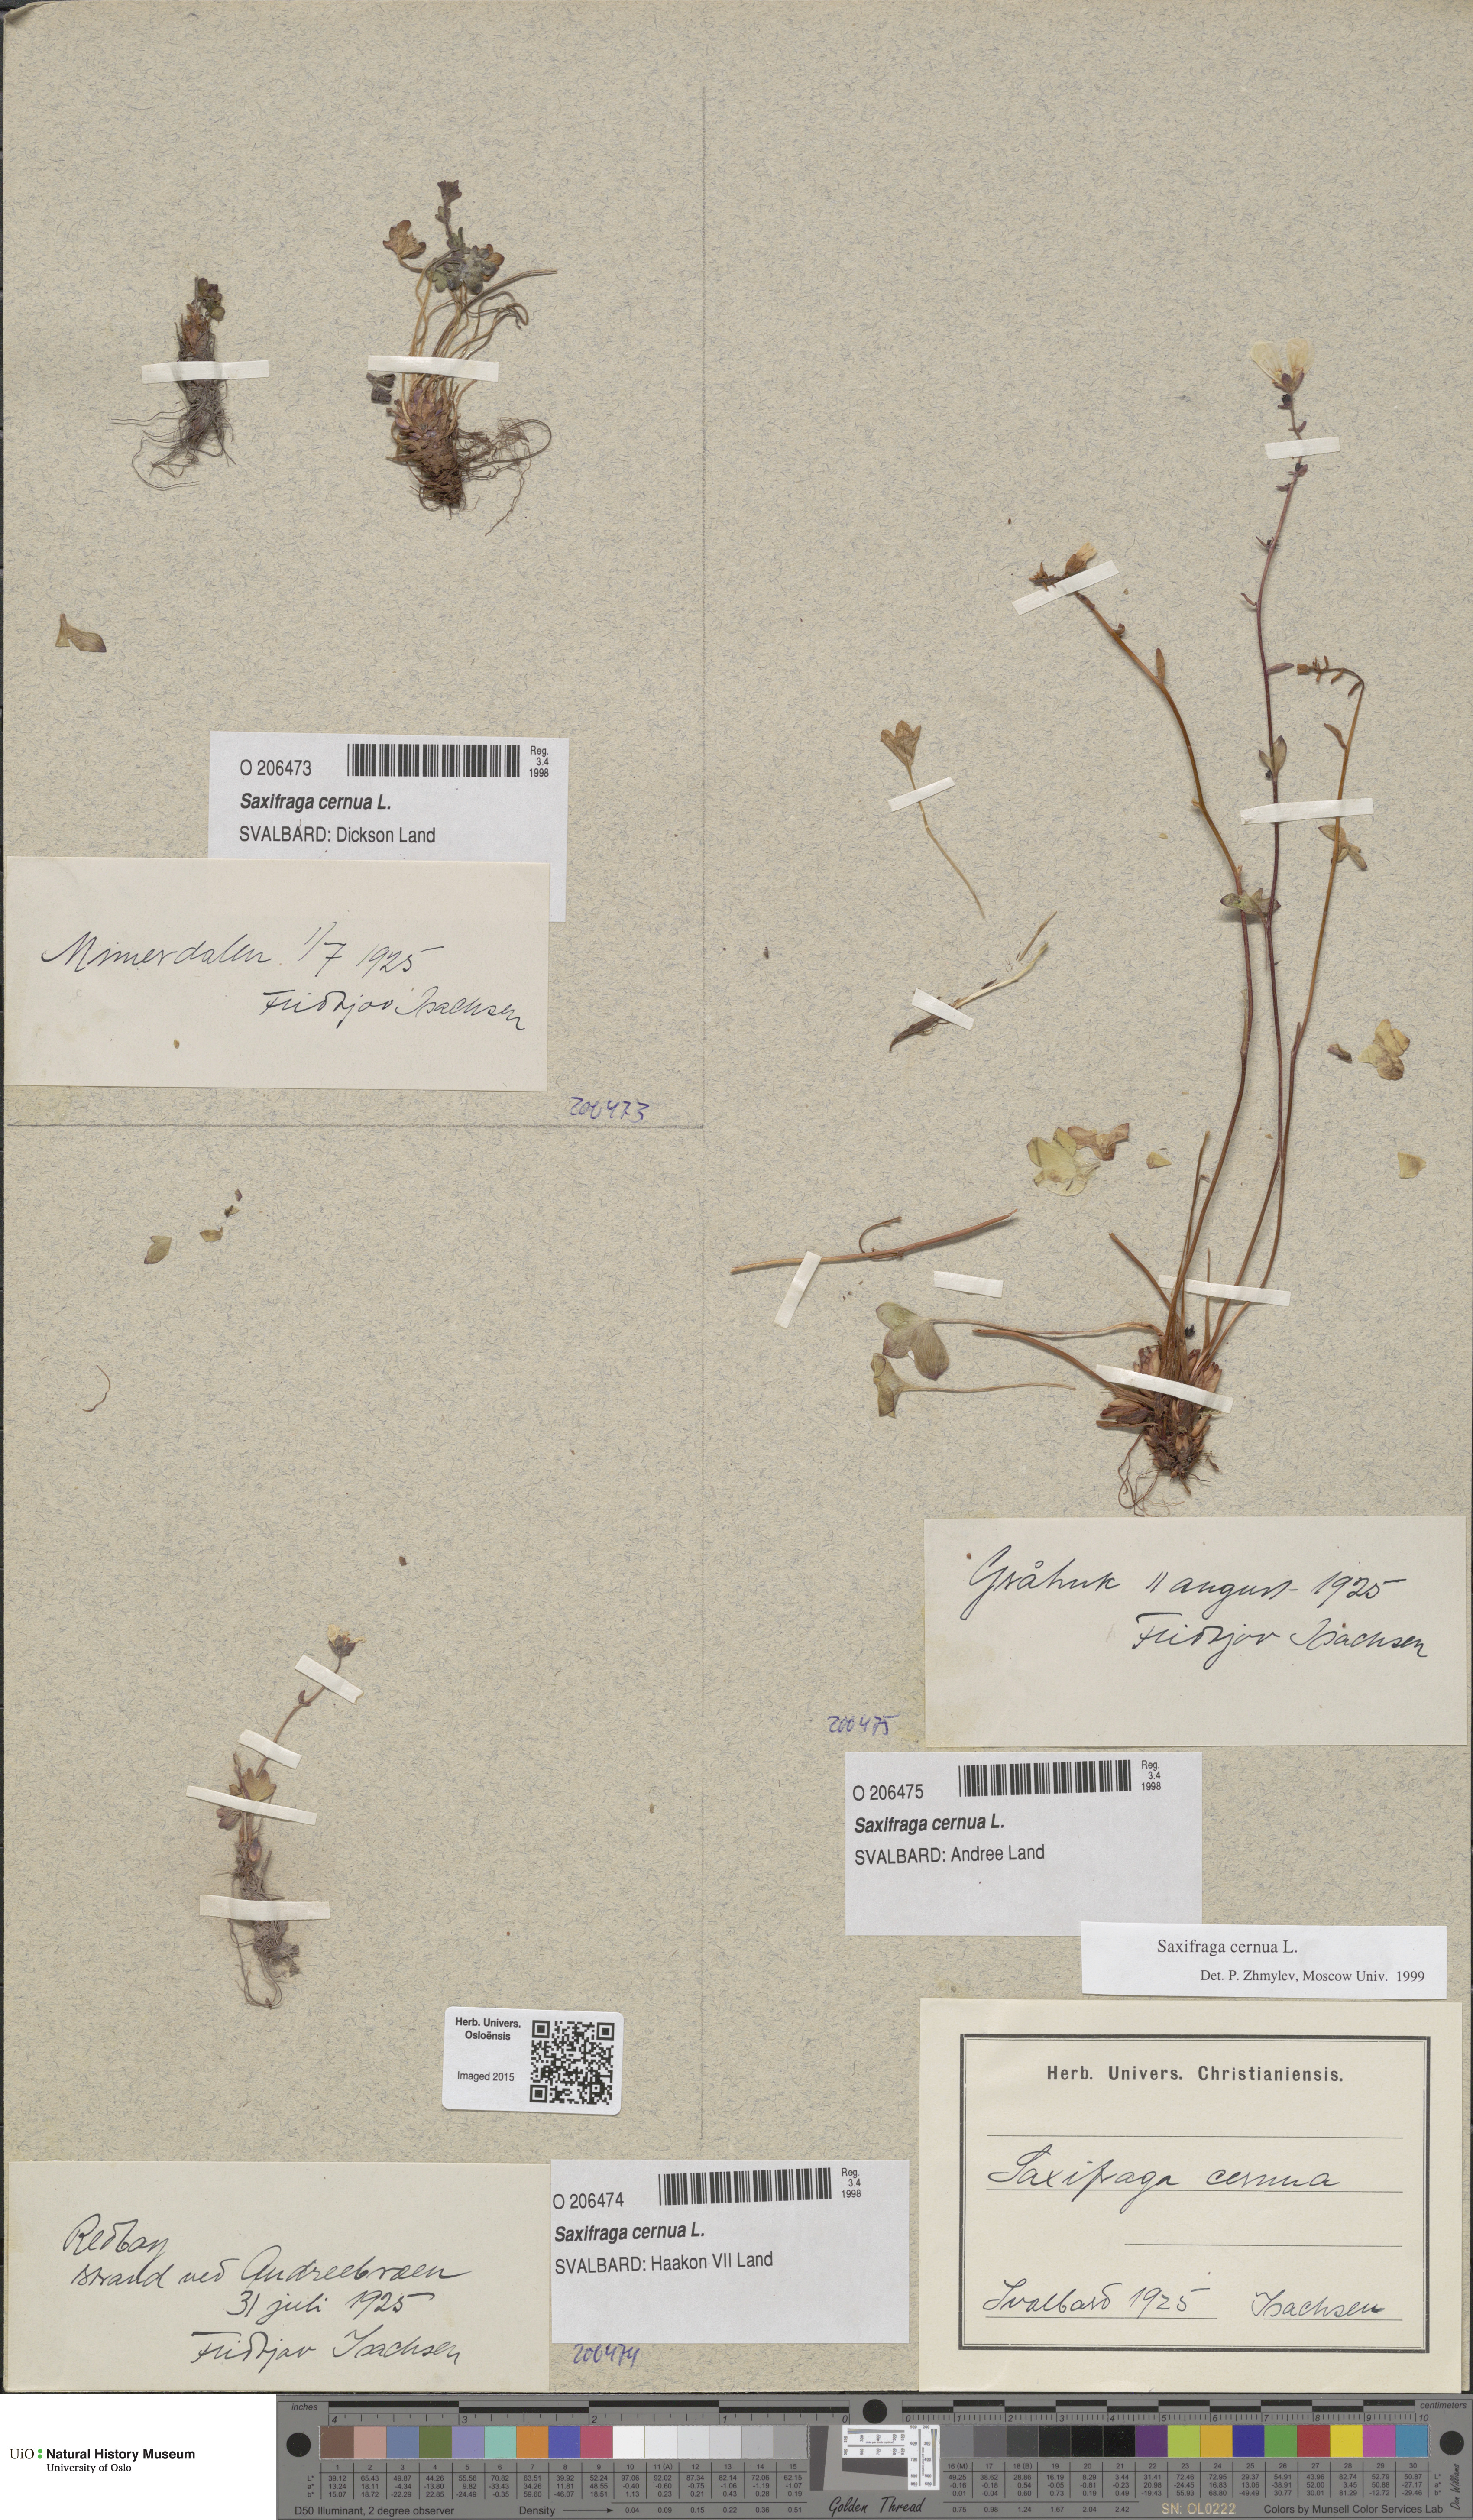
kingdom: Plantae
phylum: Tracheophyta
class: Magnoliopsida
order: Saxifragales
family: Saxifragaceae
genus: Saxifraga
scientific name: Saxifraga cernua
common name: Drooping saxifrage
